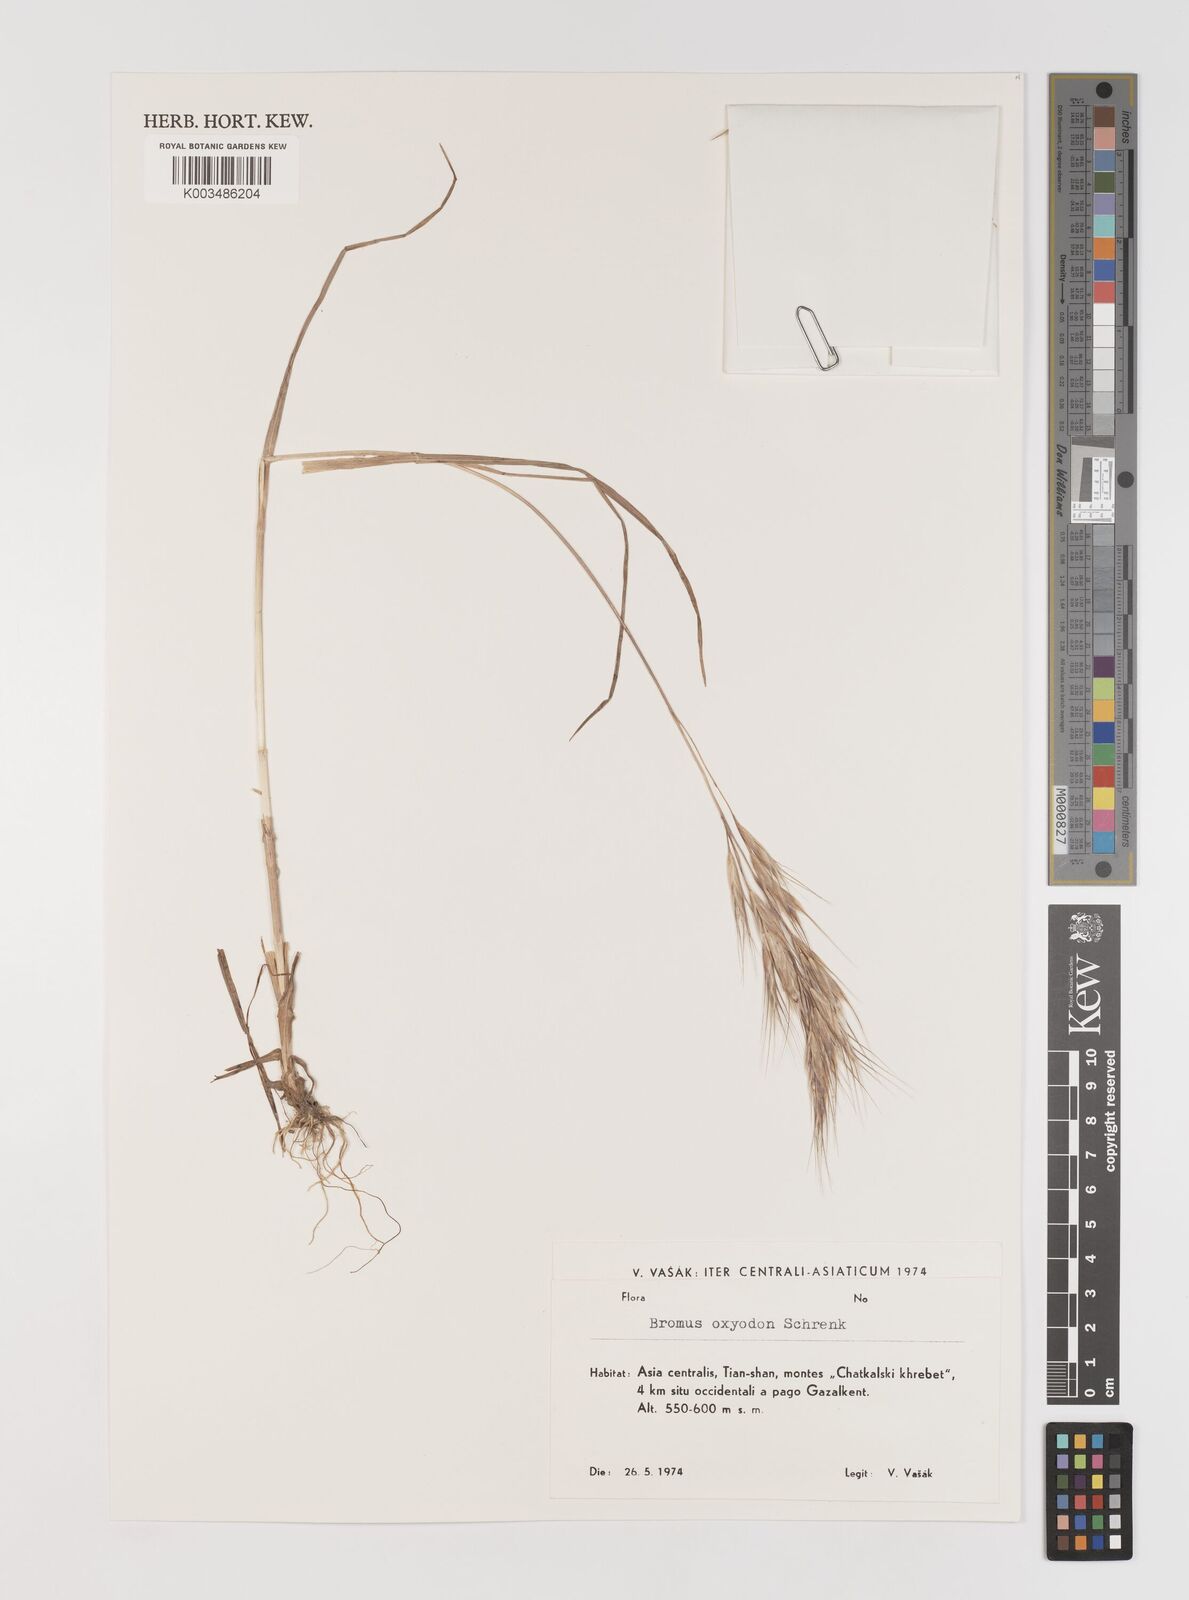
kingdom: Plantae
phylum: Tracheophyta
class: Liliopsida
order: Poales
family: Poaceae
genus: Bromus
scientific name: Bromus oxyodon
